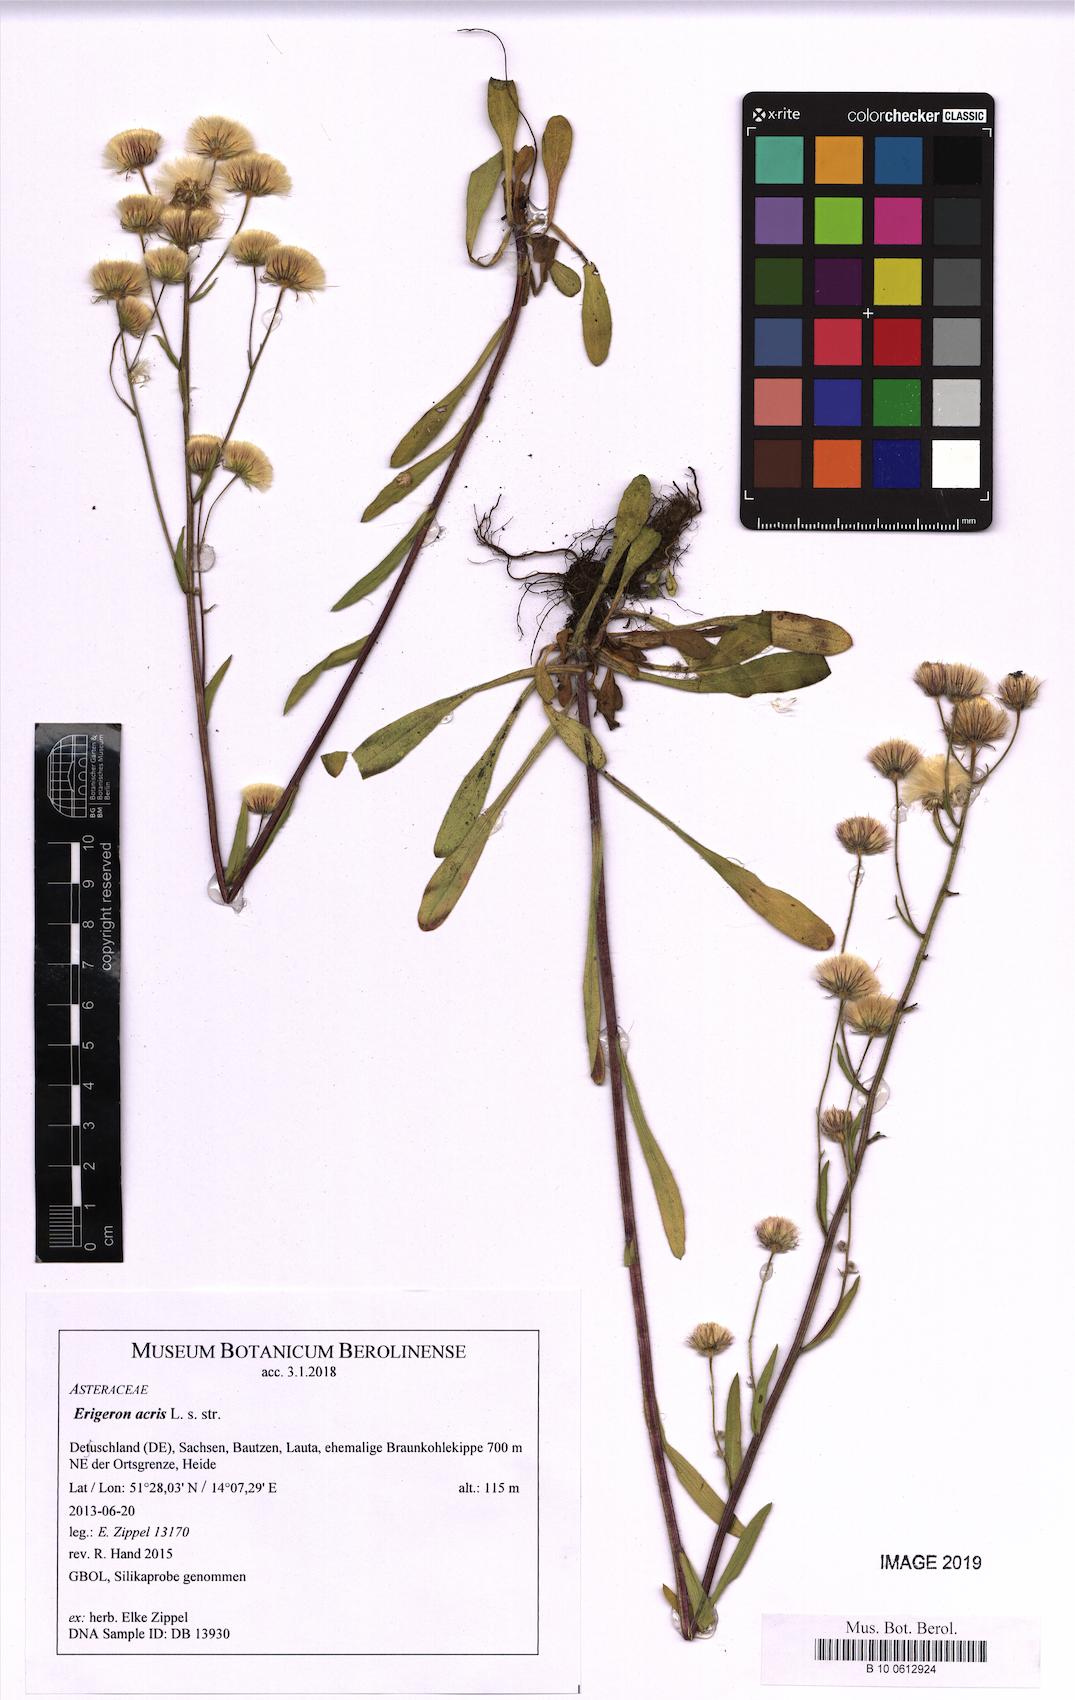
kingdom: Plantae
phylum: Tracheophyta
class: Magnoliopsida
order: Asterales
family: Asteraceae
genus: Erigeron
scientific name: Erigeron acris
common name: Blue fleabane
